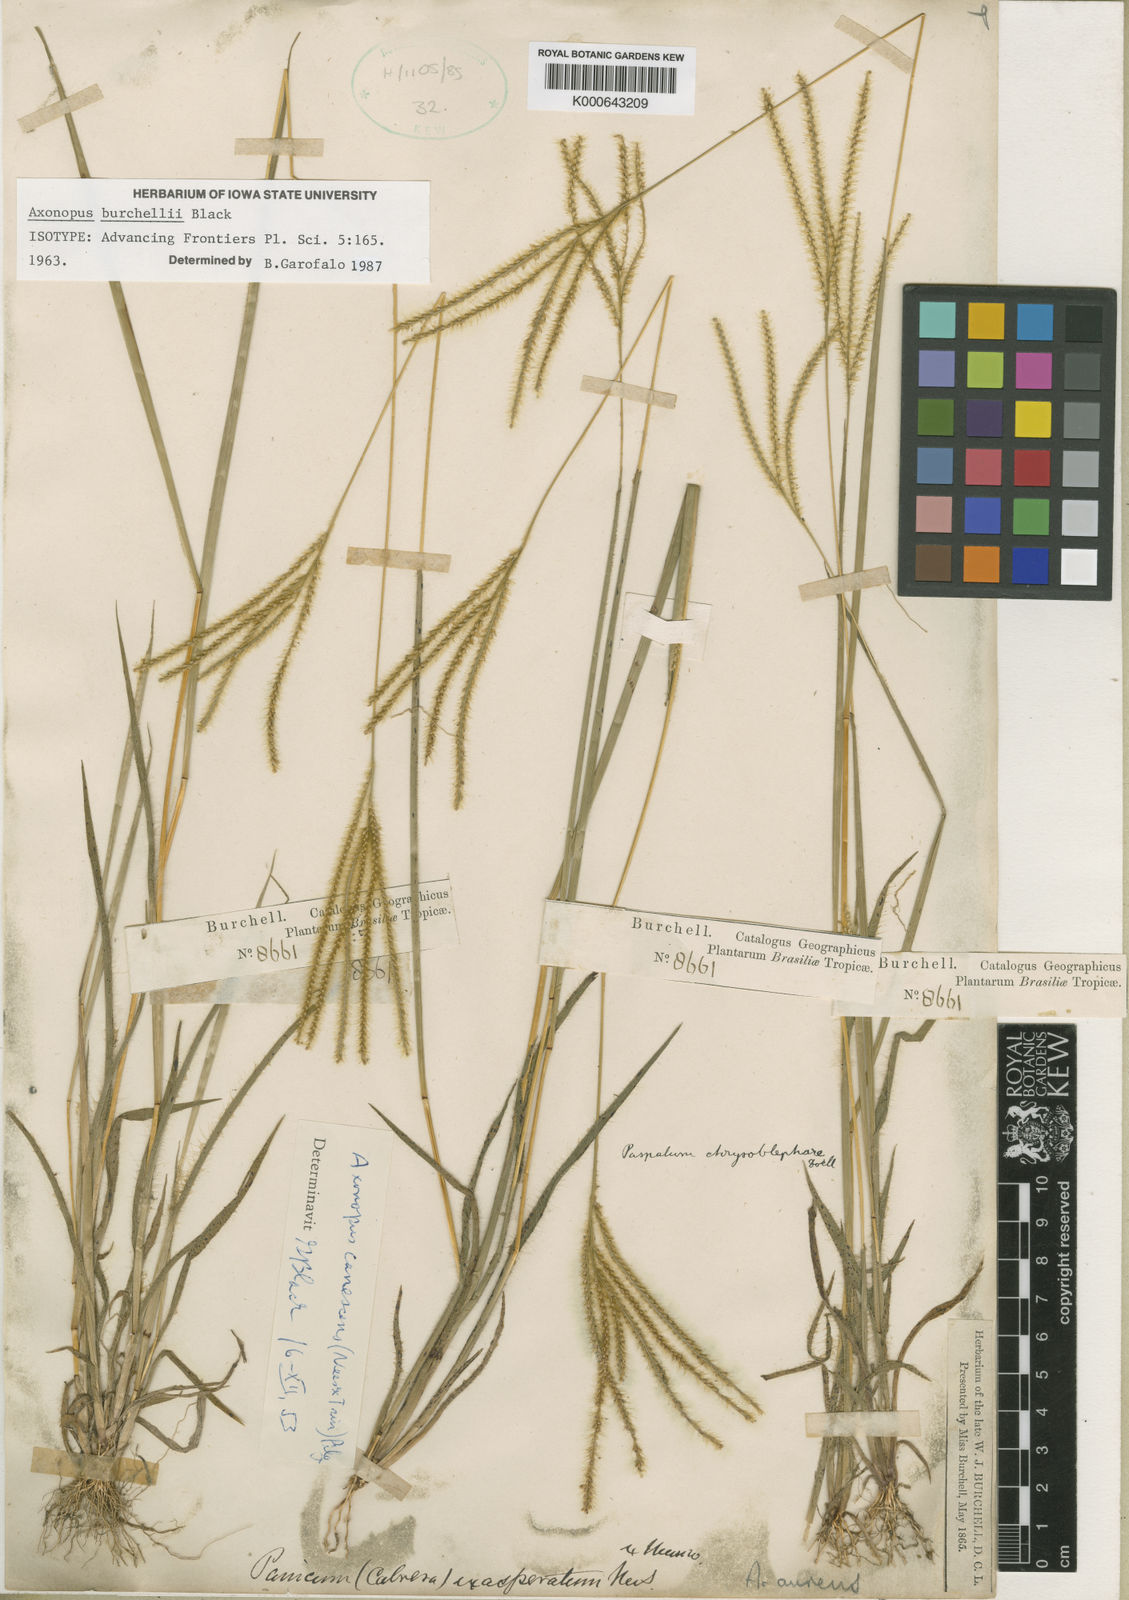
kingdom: Plantae
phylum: Tracheophyta
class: Liliopsida
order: Poales
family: Poaceae
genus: Axonopus
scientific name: Axonopus aureus
